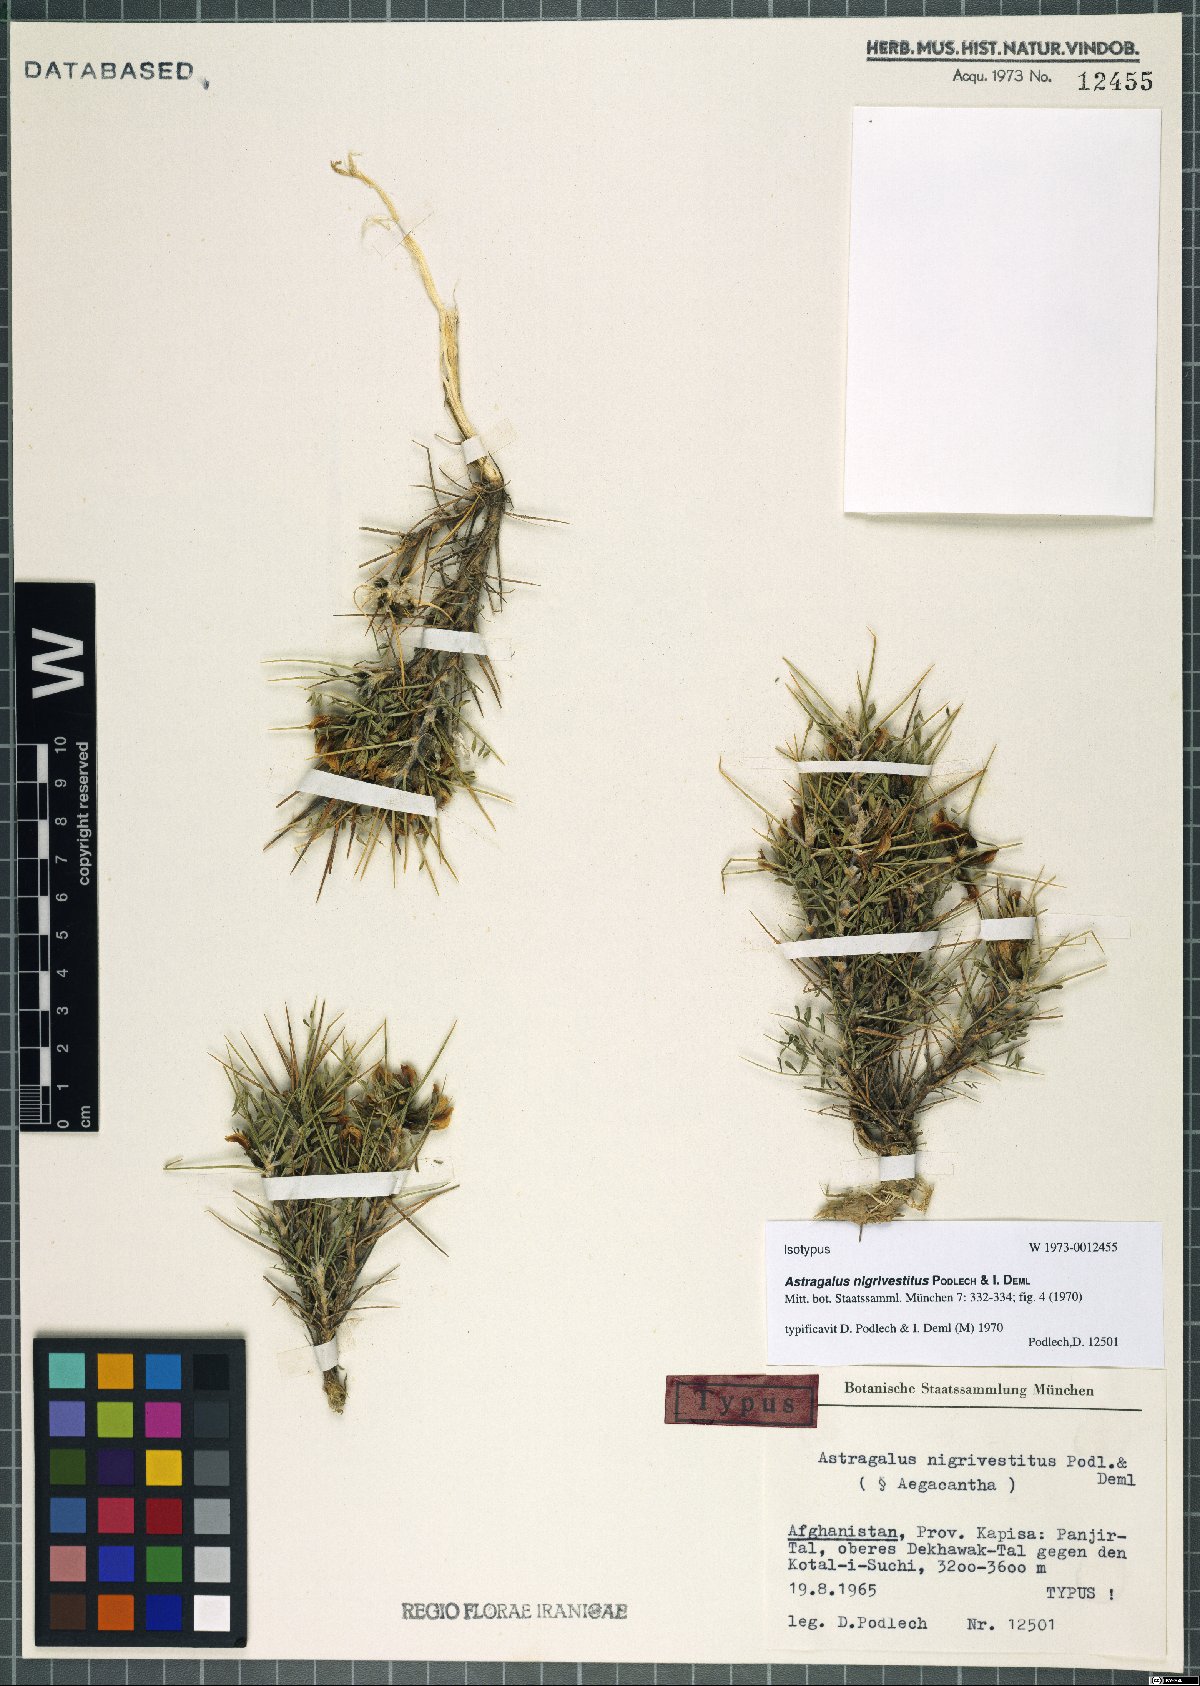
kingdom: Plantae
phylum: Tracheophyta
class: Magnoliopsida
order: Fabales
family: Fabaceae
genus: Astragalus
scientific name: Astragalus nigrivestitus
